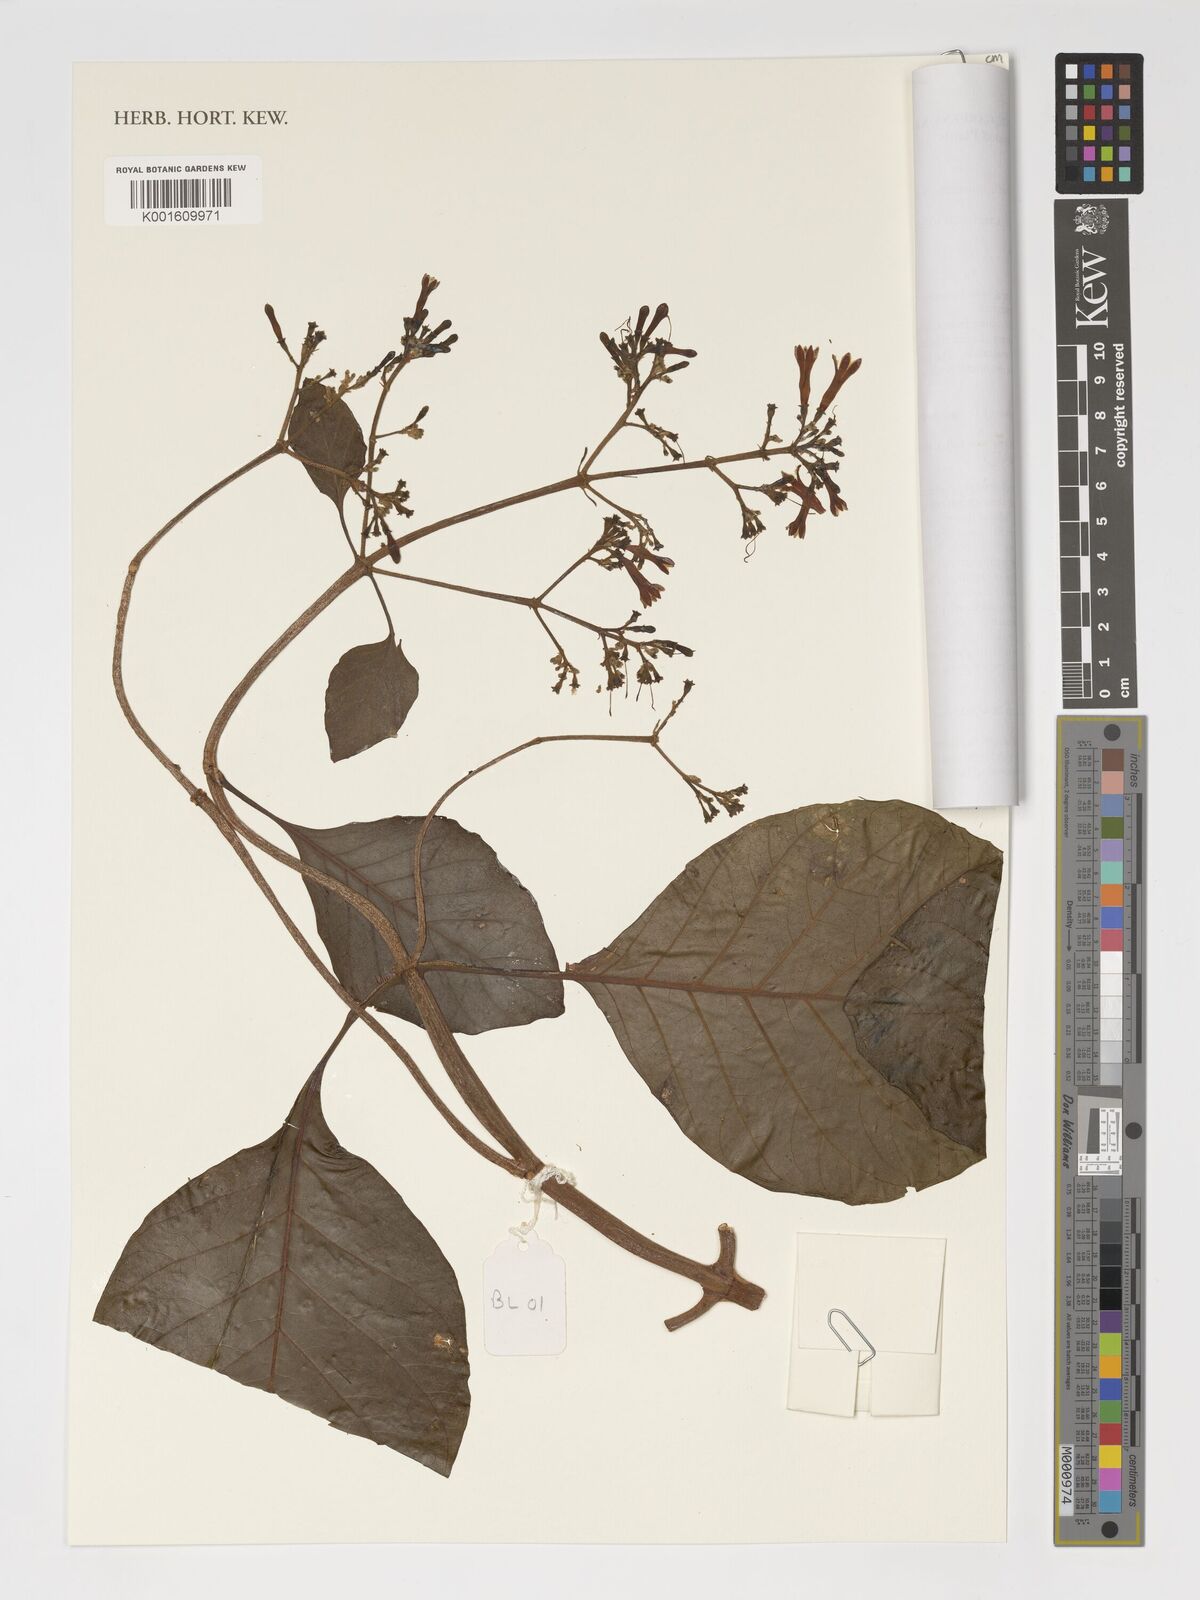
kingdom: Plantae
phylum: Tracheophyta
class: Magnoliopsida
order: Gentianales
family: Rubiaceae
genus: Cinchona
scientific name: Cinchona pubescens
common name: Quinine
